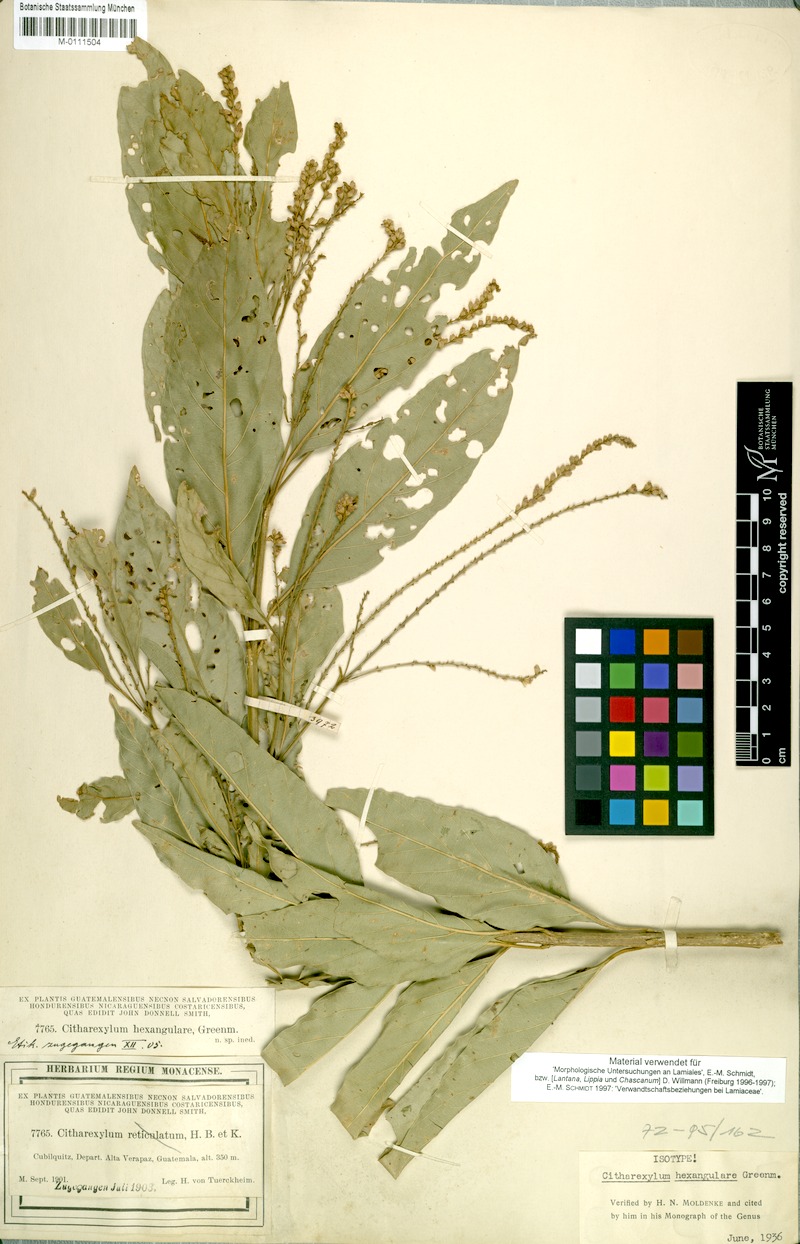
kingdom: Plantae
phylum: Tracheophyta
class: Magnoliopsida
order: Lamiales
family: Verbenaceae
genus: Citharexylum
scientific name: Citharexylum hexangulare
